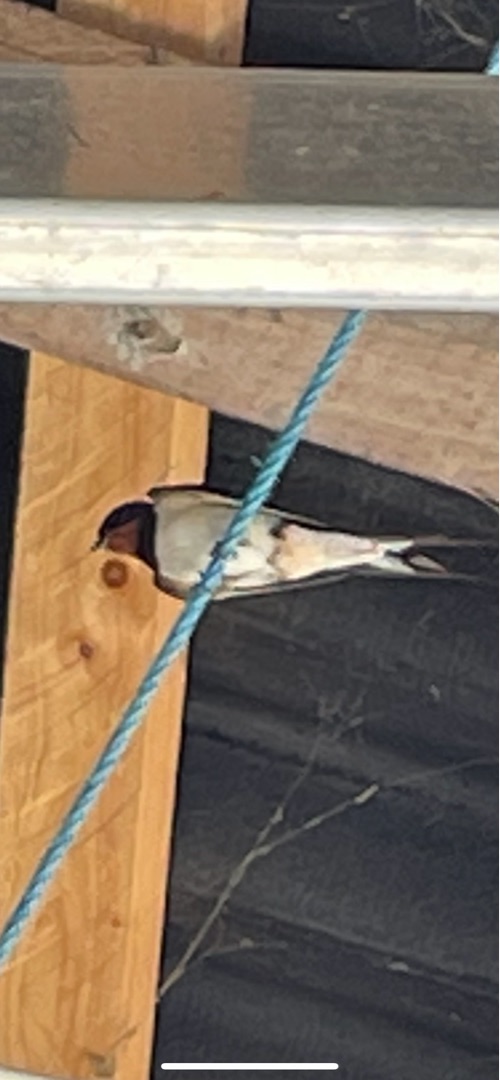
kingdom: Animalia
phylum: Chordata
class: Aves
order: Passeriformes
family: Hirundinidae
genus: Hirundo
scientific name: Hirundo rustica
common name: Landsvale
